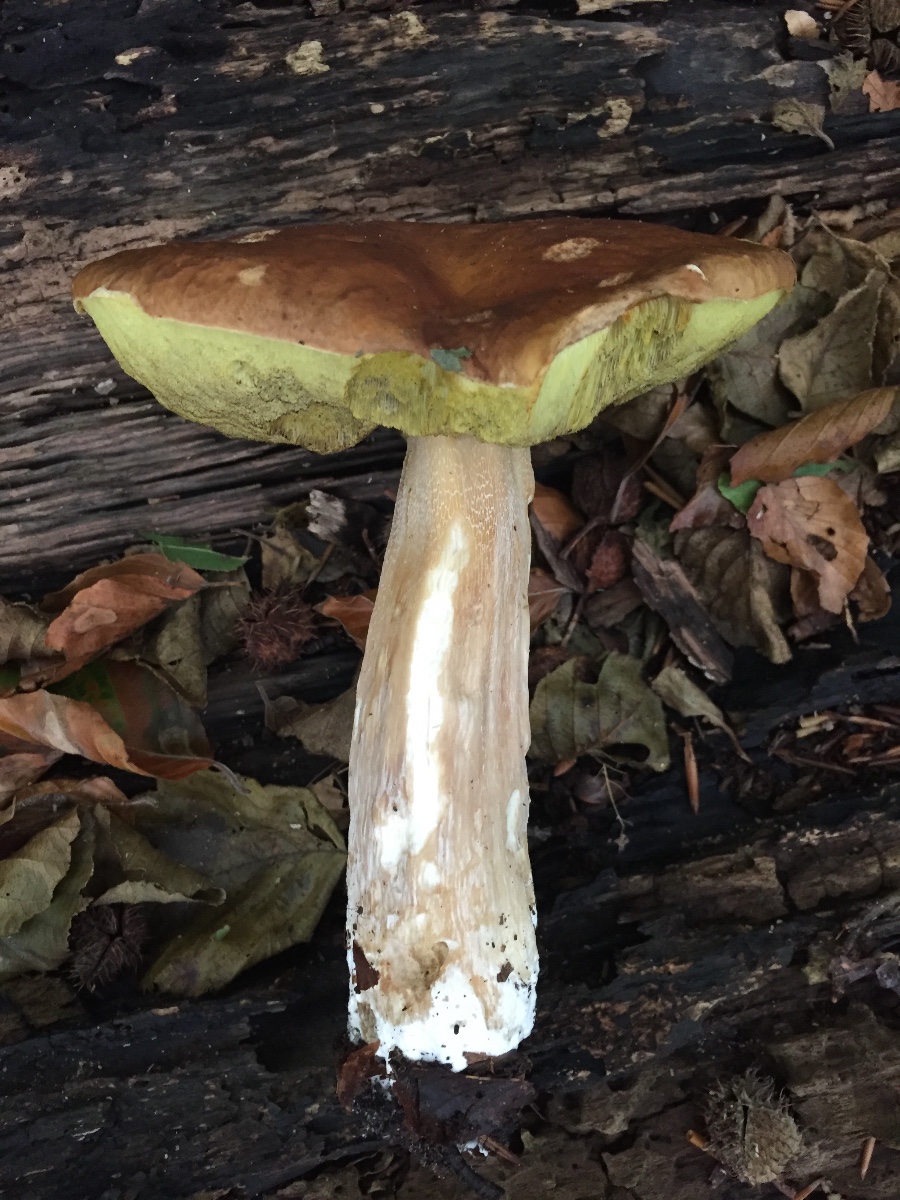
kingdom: Fungi
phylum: Basidiomycota
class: Agaricomycetes
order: Boletales
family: Boletaceae
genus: Boletus
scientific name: Boletus edulis
